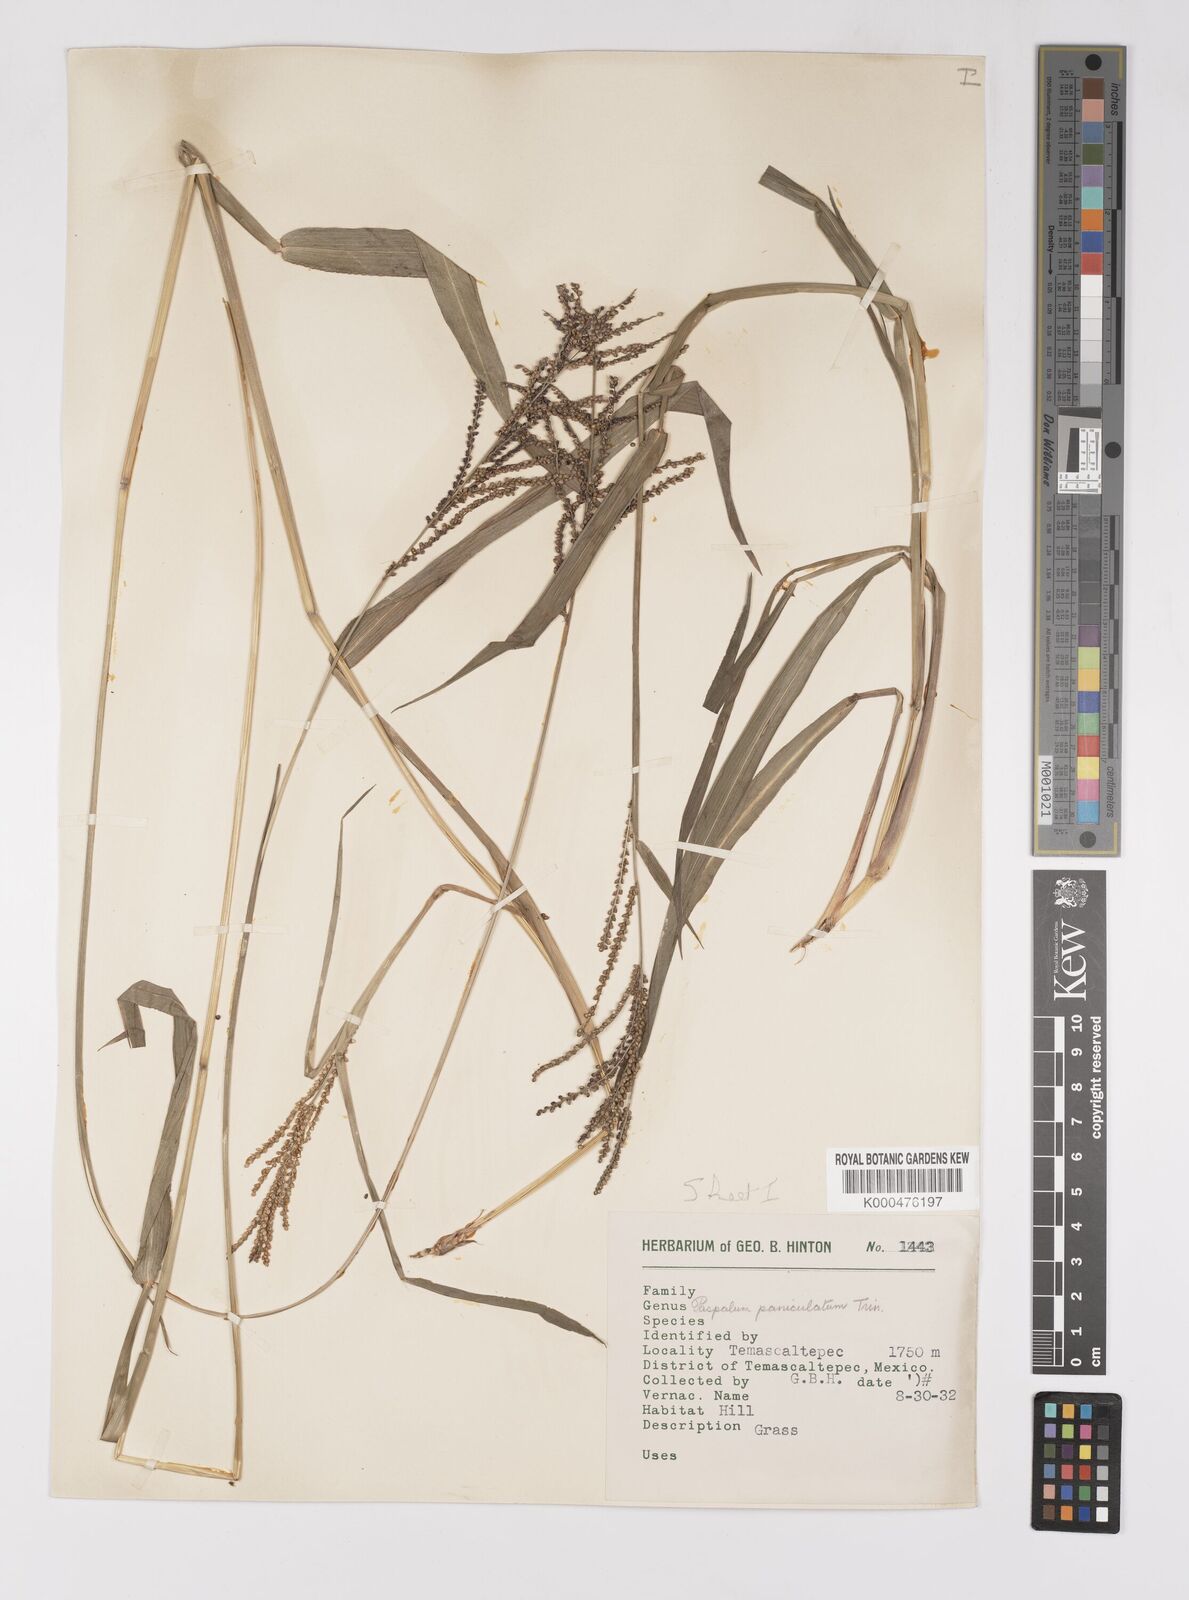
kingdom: Plantae
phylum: Tracheophyta
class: Liliopsida
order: Poales
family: Poaceae
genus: Paspalum
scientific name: Paspalum paniculatum
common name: Arrocillo
